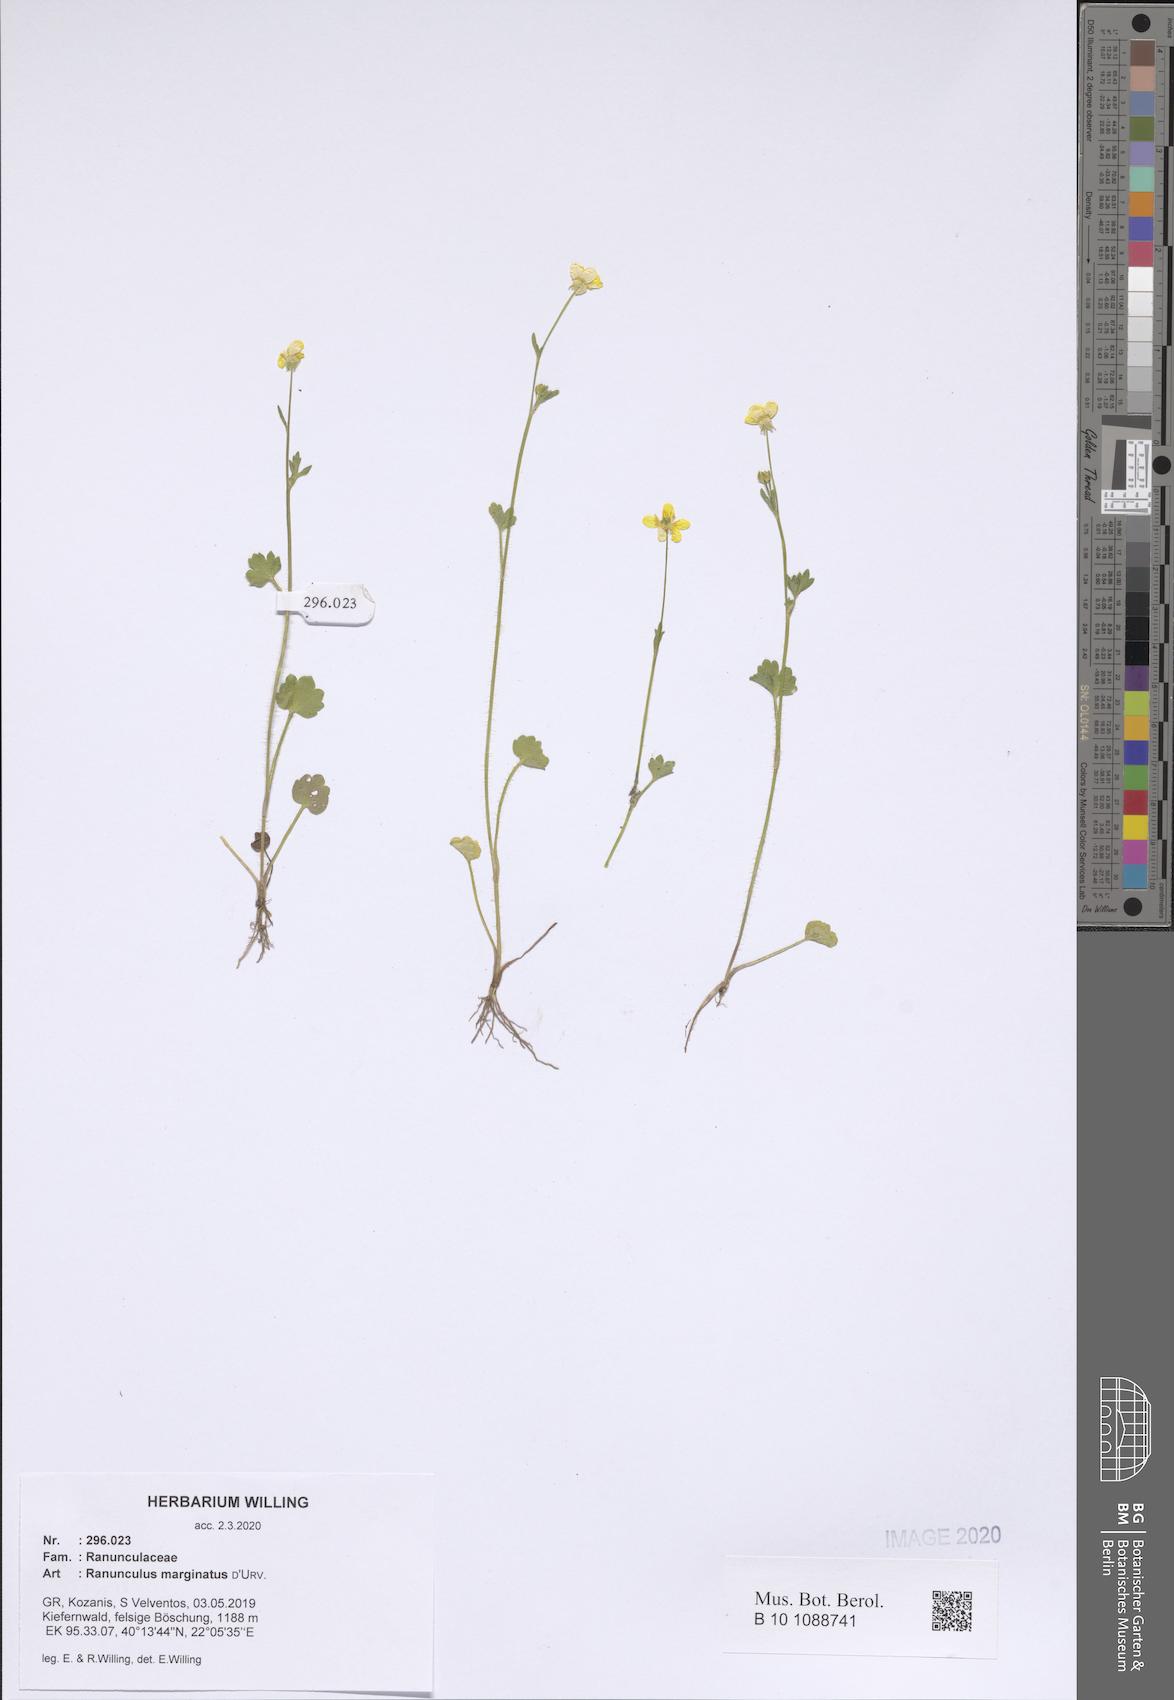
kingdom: Plantae
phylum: Tracheophyta
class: Magnoliopsida
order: Ranunculales
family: Ranunculaceae
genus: Ranunculus
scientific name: Ranunculus marginatus
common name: St. martin's buttercup
